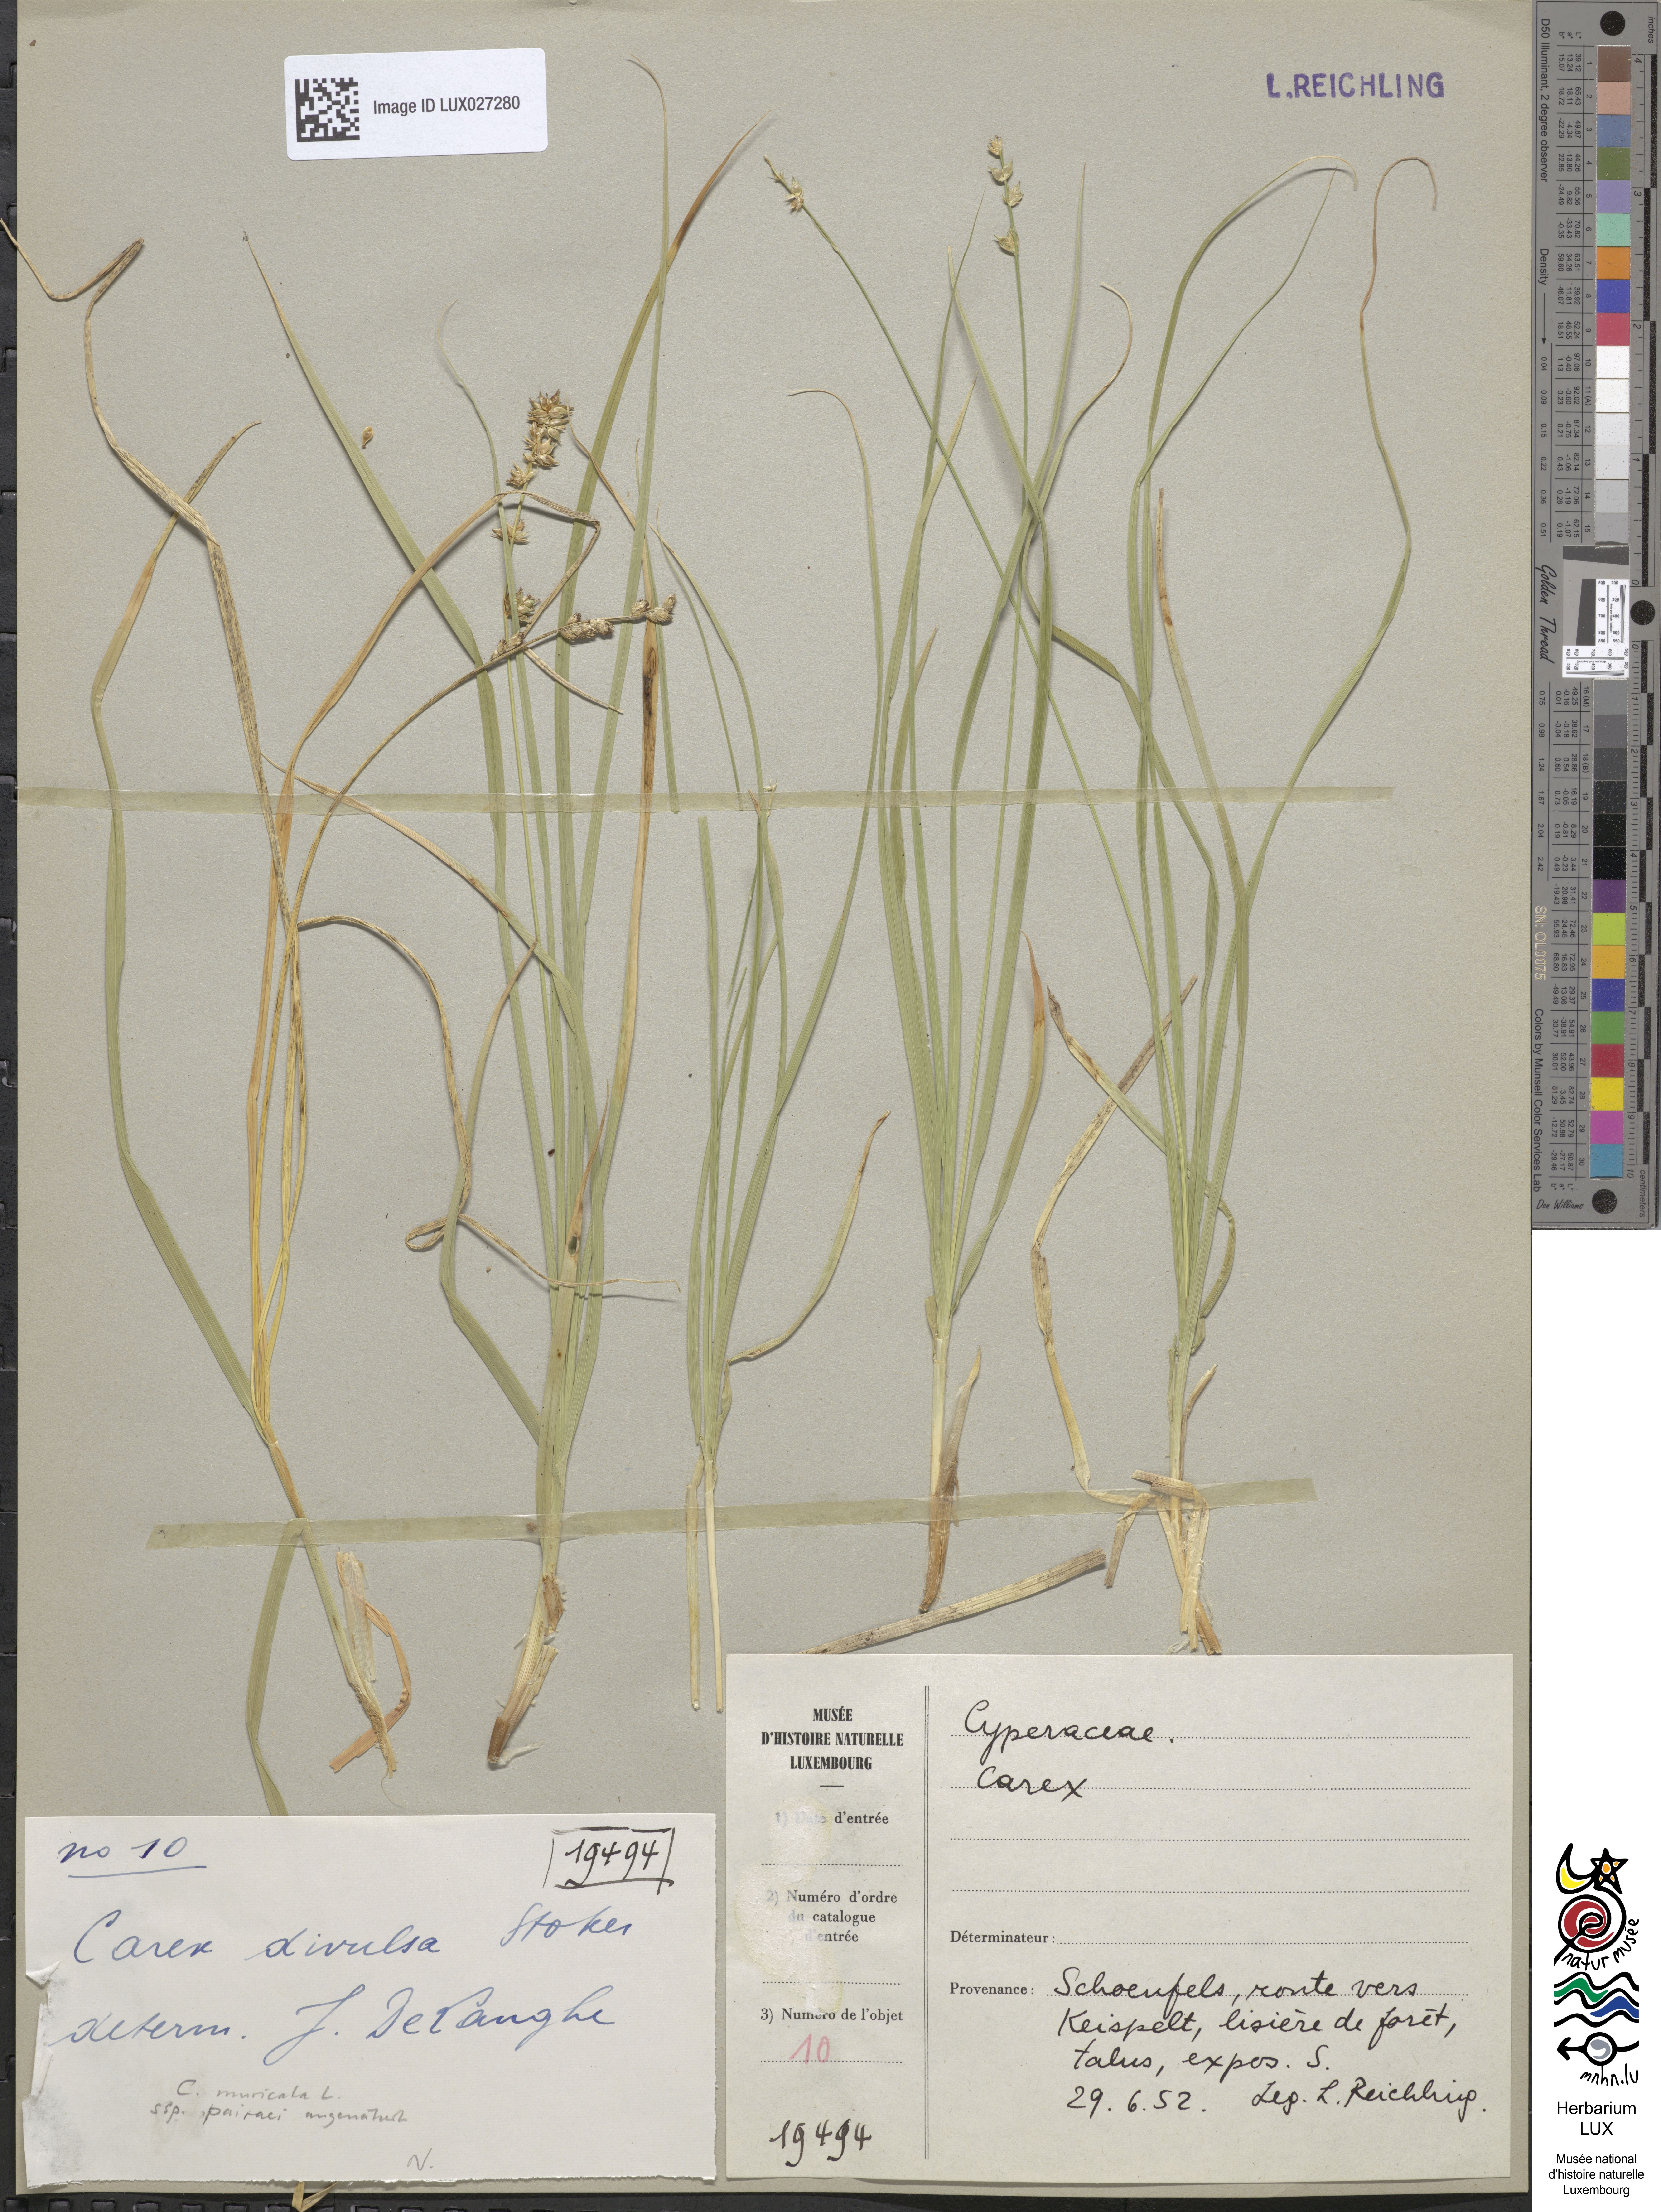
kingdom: Plantae
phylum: Tracheophyta
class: Liliopsida
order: Poales
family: Cyperaceae
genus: Carex
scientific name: Carex divulsa
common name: Grassland sedge
